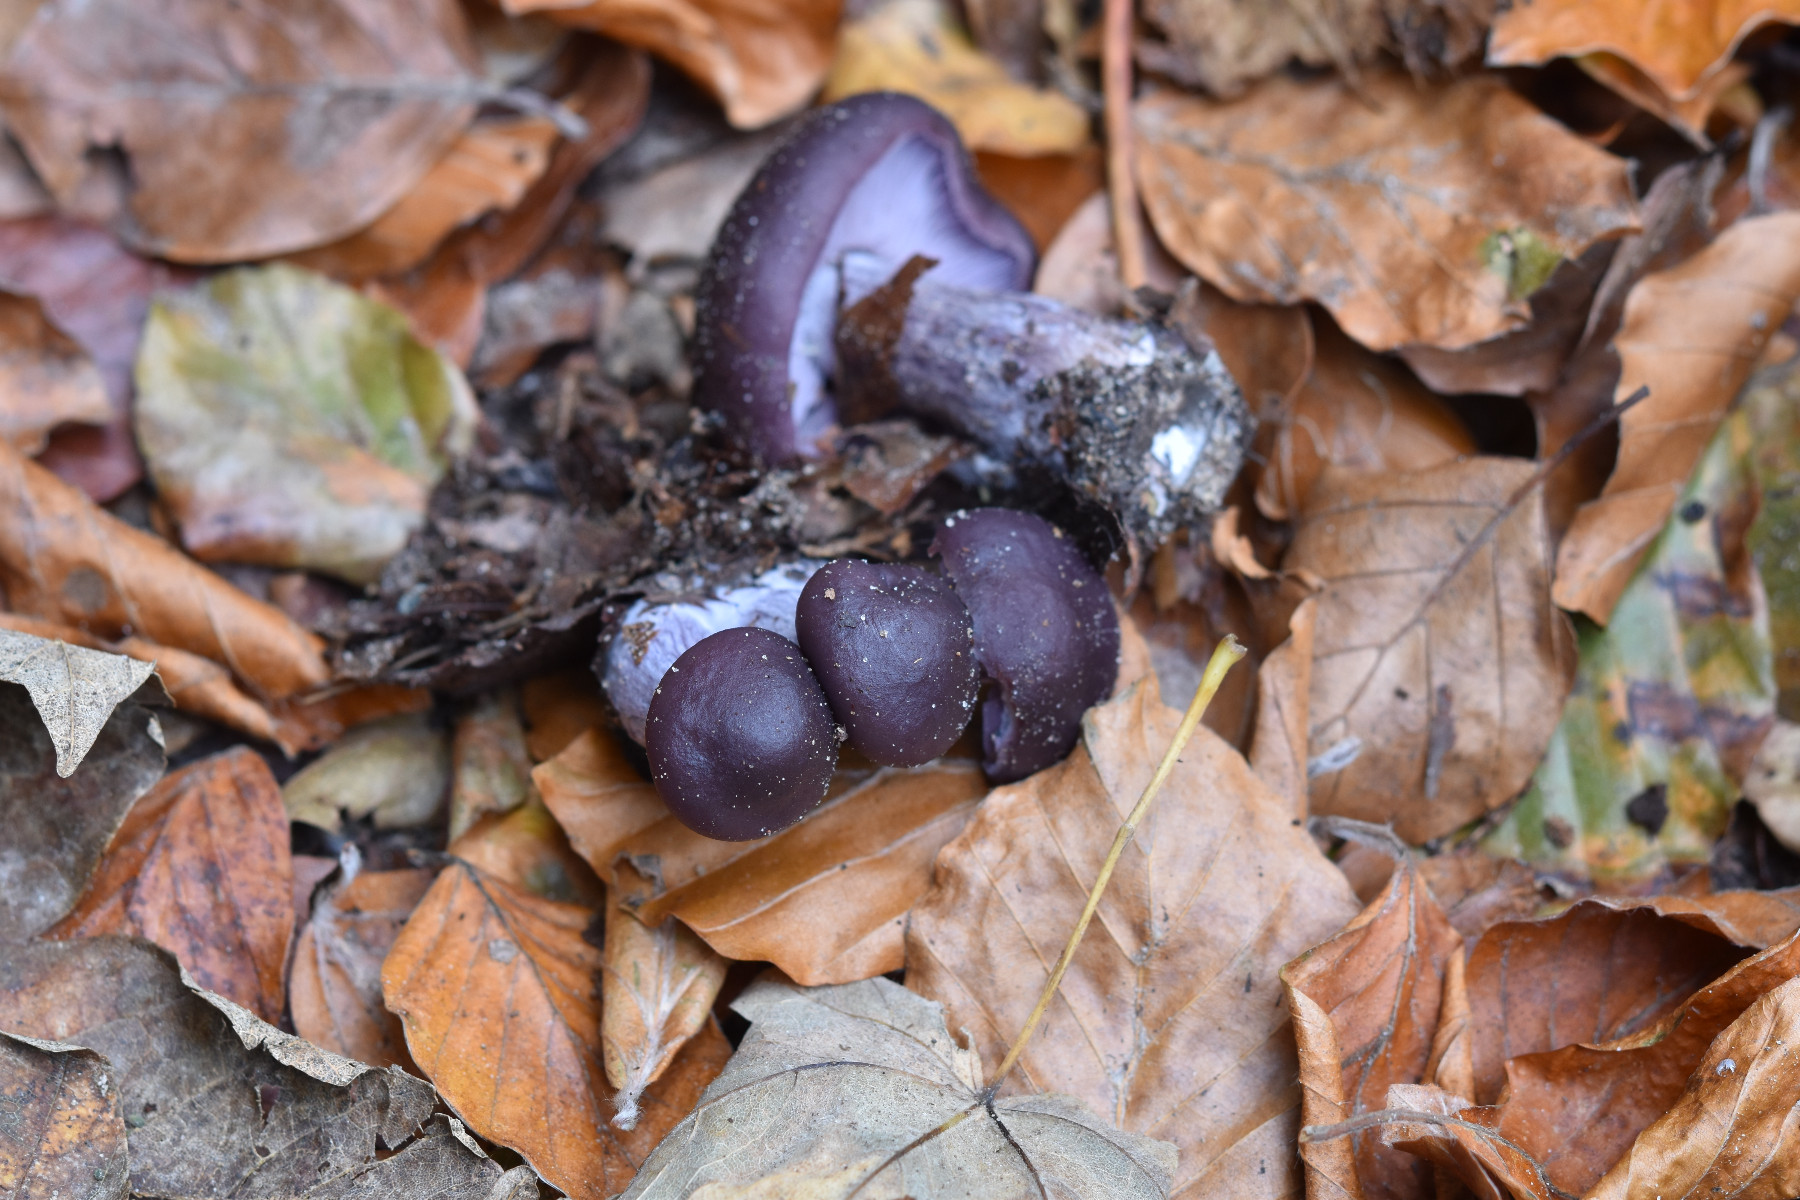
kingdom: Fungi
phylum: Basidiomycota
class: Agaricomycetes
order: Agaricales
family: Tricholomataceae
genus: Lepista
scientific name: Lepista nuda
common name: violet hekseringshat
